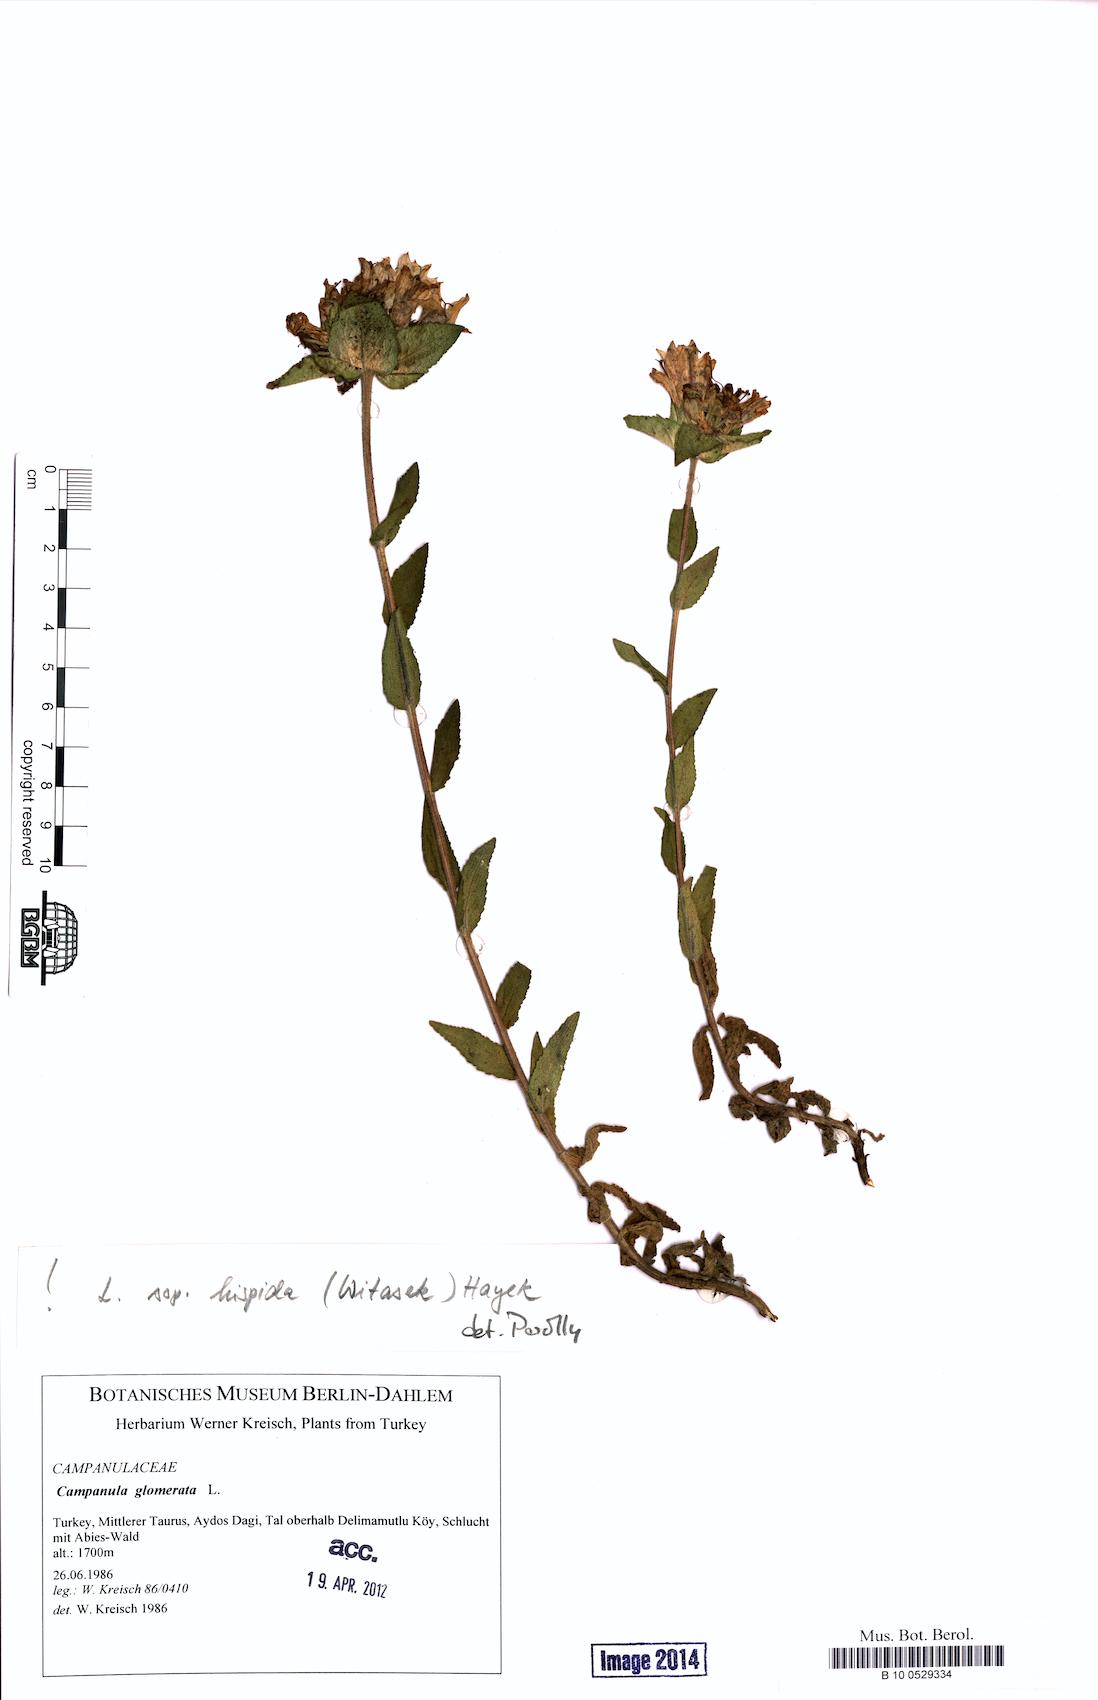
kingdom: Plantae
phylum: Tracheophyta
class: Magnoliopsida
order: Asterales
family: Campanulaceae
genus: Campanula
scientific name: Campanula glomerata
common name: Clustered bellflower
